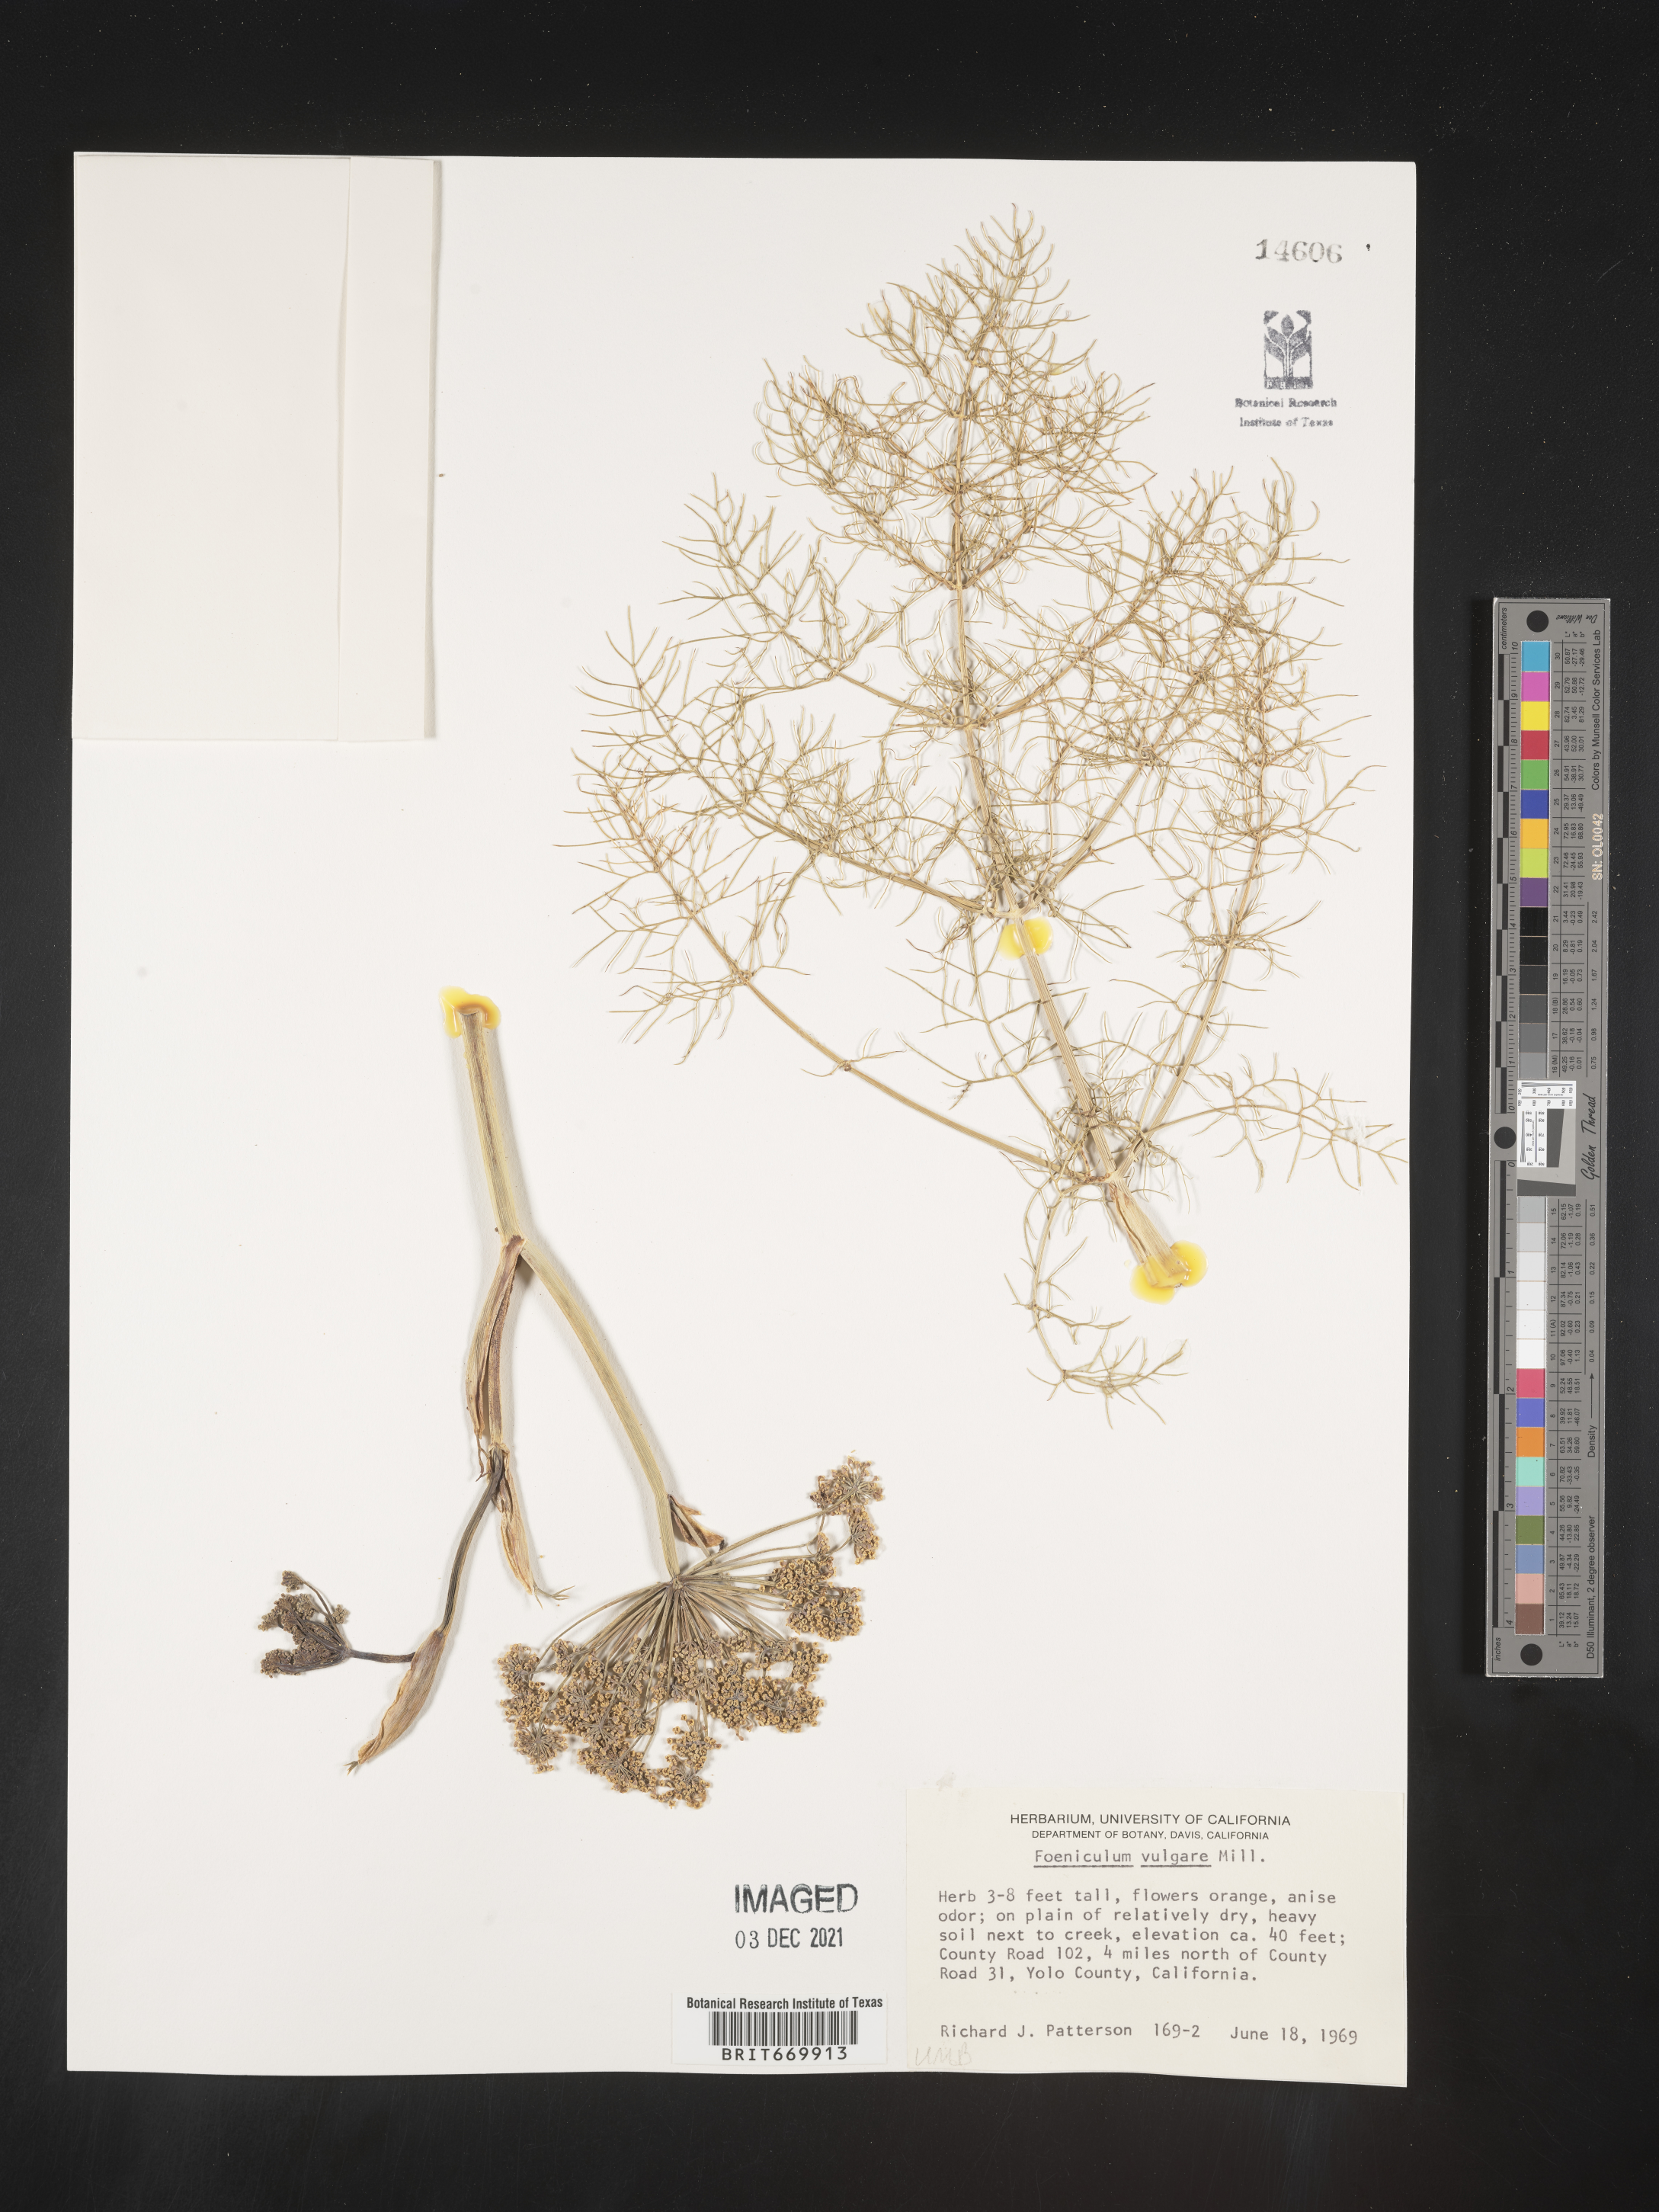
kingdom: Plantae
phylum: Tracheophyta
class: Magnoliopsida
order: Apiales
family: Apiaceae
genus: Foeniculum
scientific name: Foeniculum
